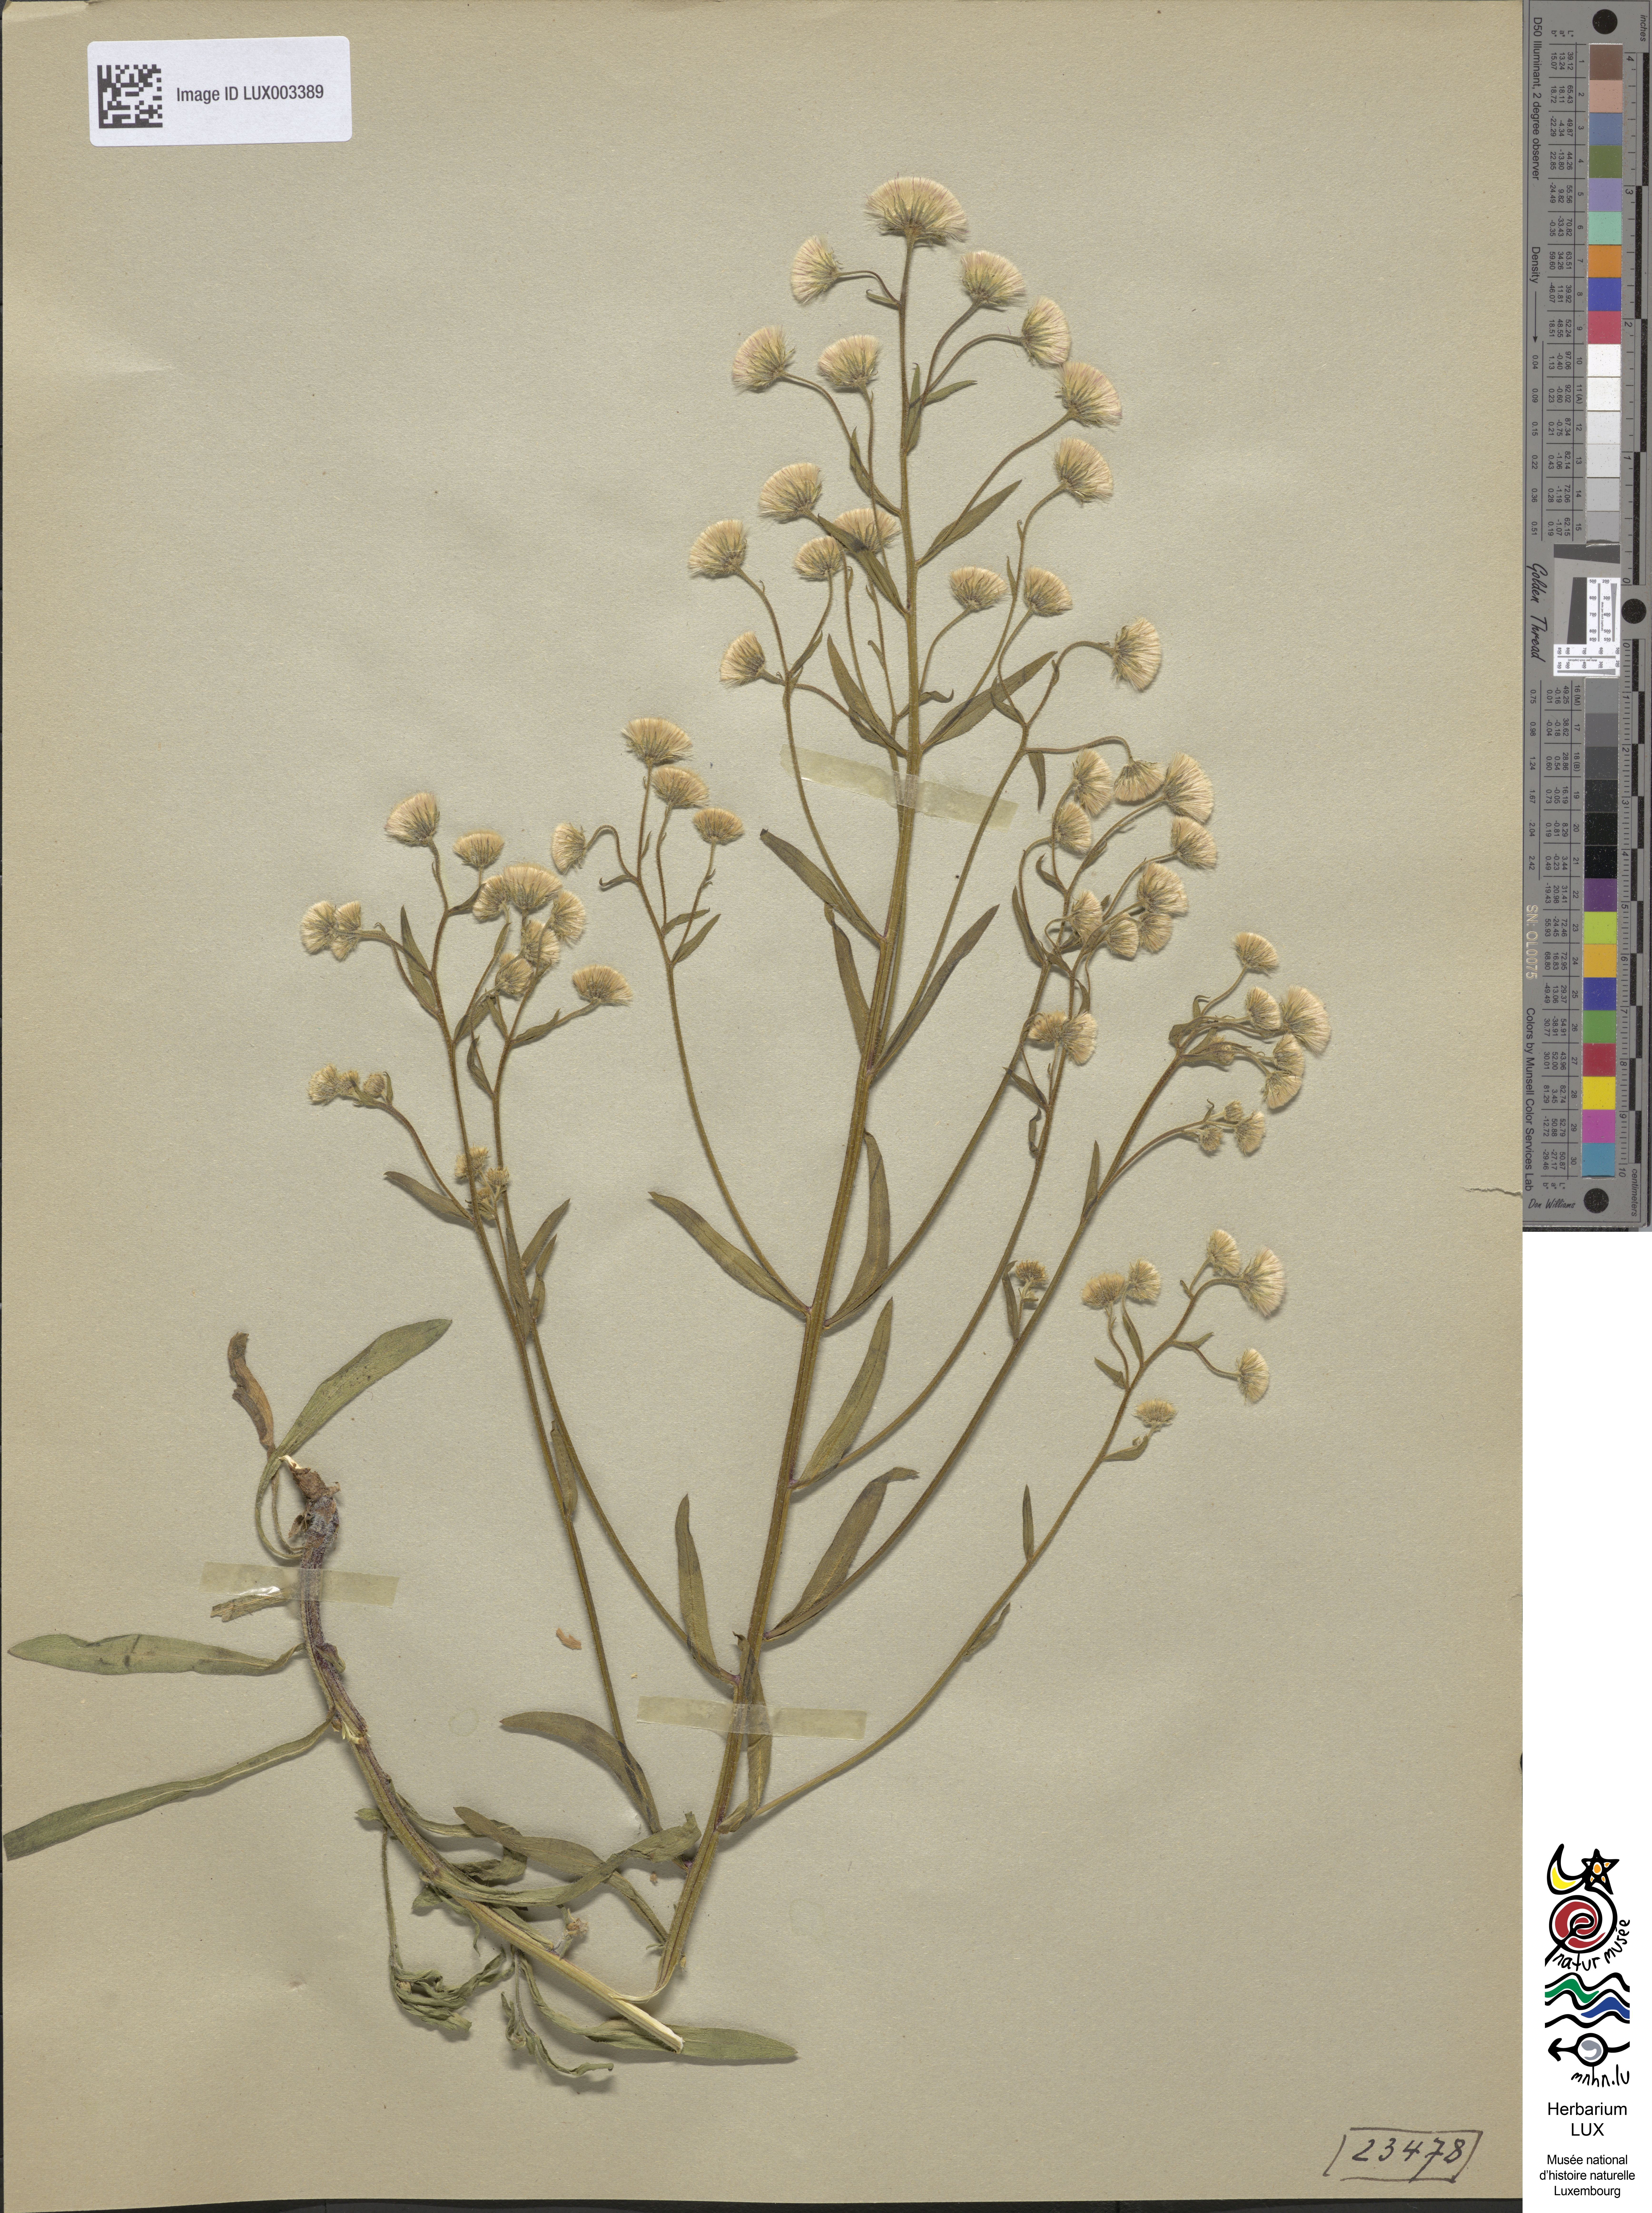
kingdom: Plantae
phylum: Tracheophyta
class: Magnoliopsida
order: Asterales
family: Asteraceae
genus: Erigeron
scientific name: Erigeron acer
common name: Blue fleabane
